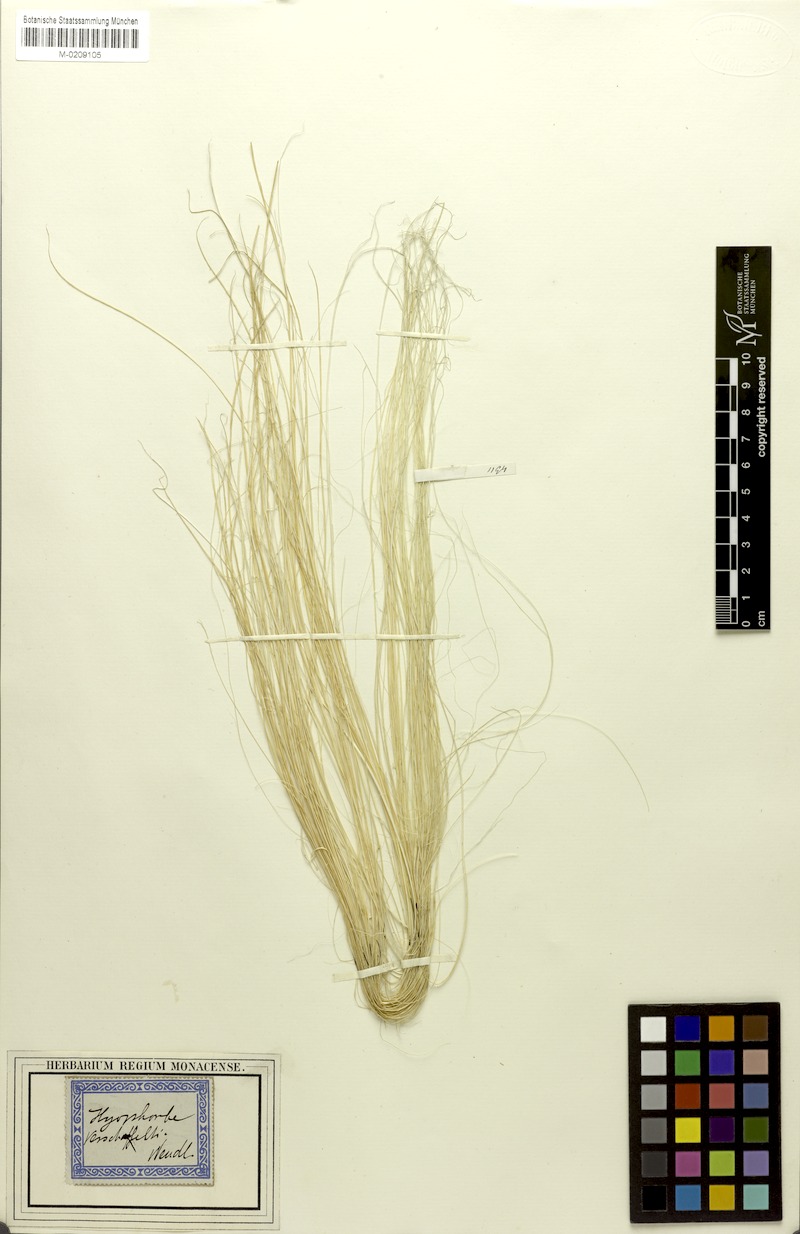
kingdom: Plantae
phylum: Tracheophyta
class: Liliopsida
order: Arecales
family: Arecaceae
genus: Hyophorbe
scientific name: Hyophorbe verschaffeltii
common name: Spindle palm
